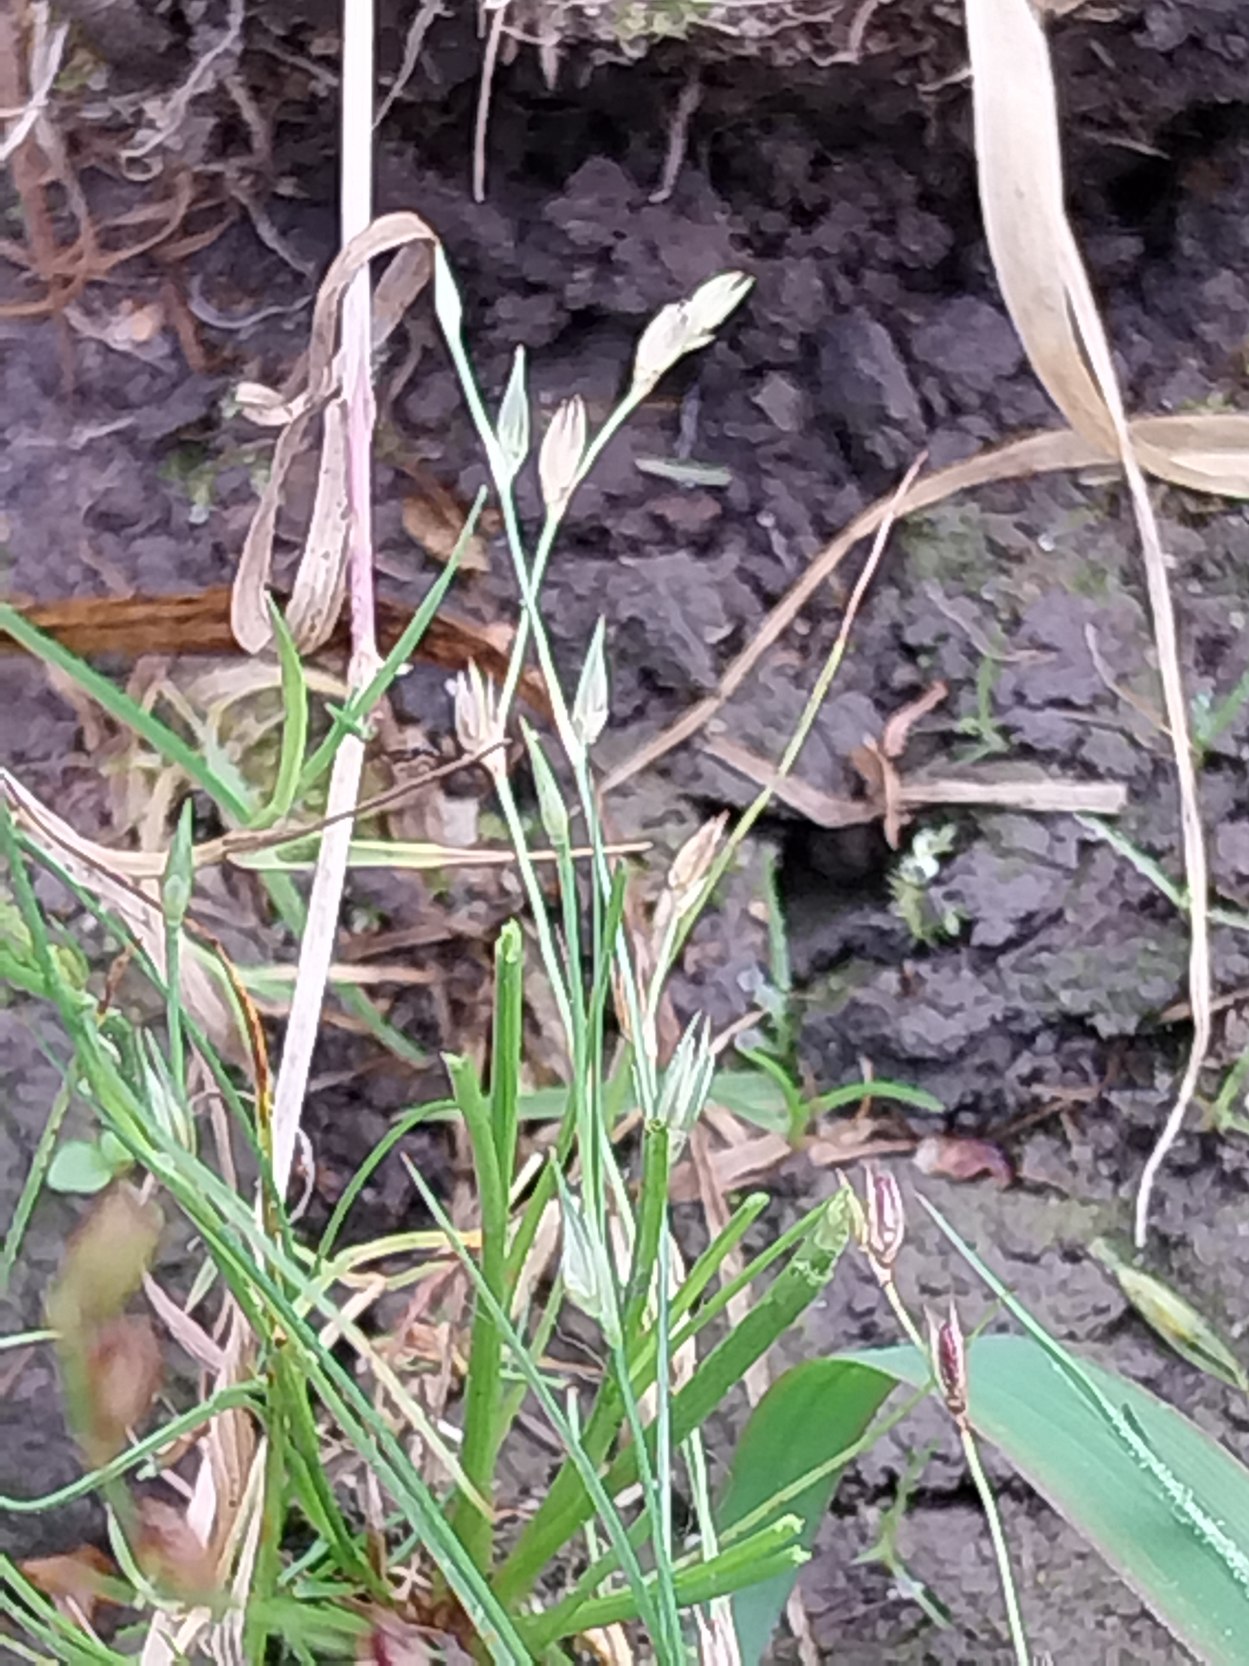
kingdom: Plantae
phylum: Tracheophyta
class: Liliopsida
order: Poales
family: Juncaceae
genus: Juncus
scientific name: Juncus bufonius
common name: Tudse-siv
